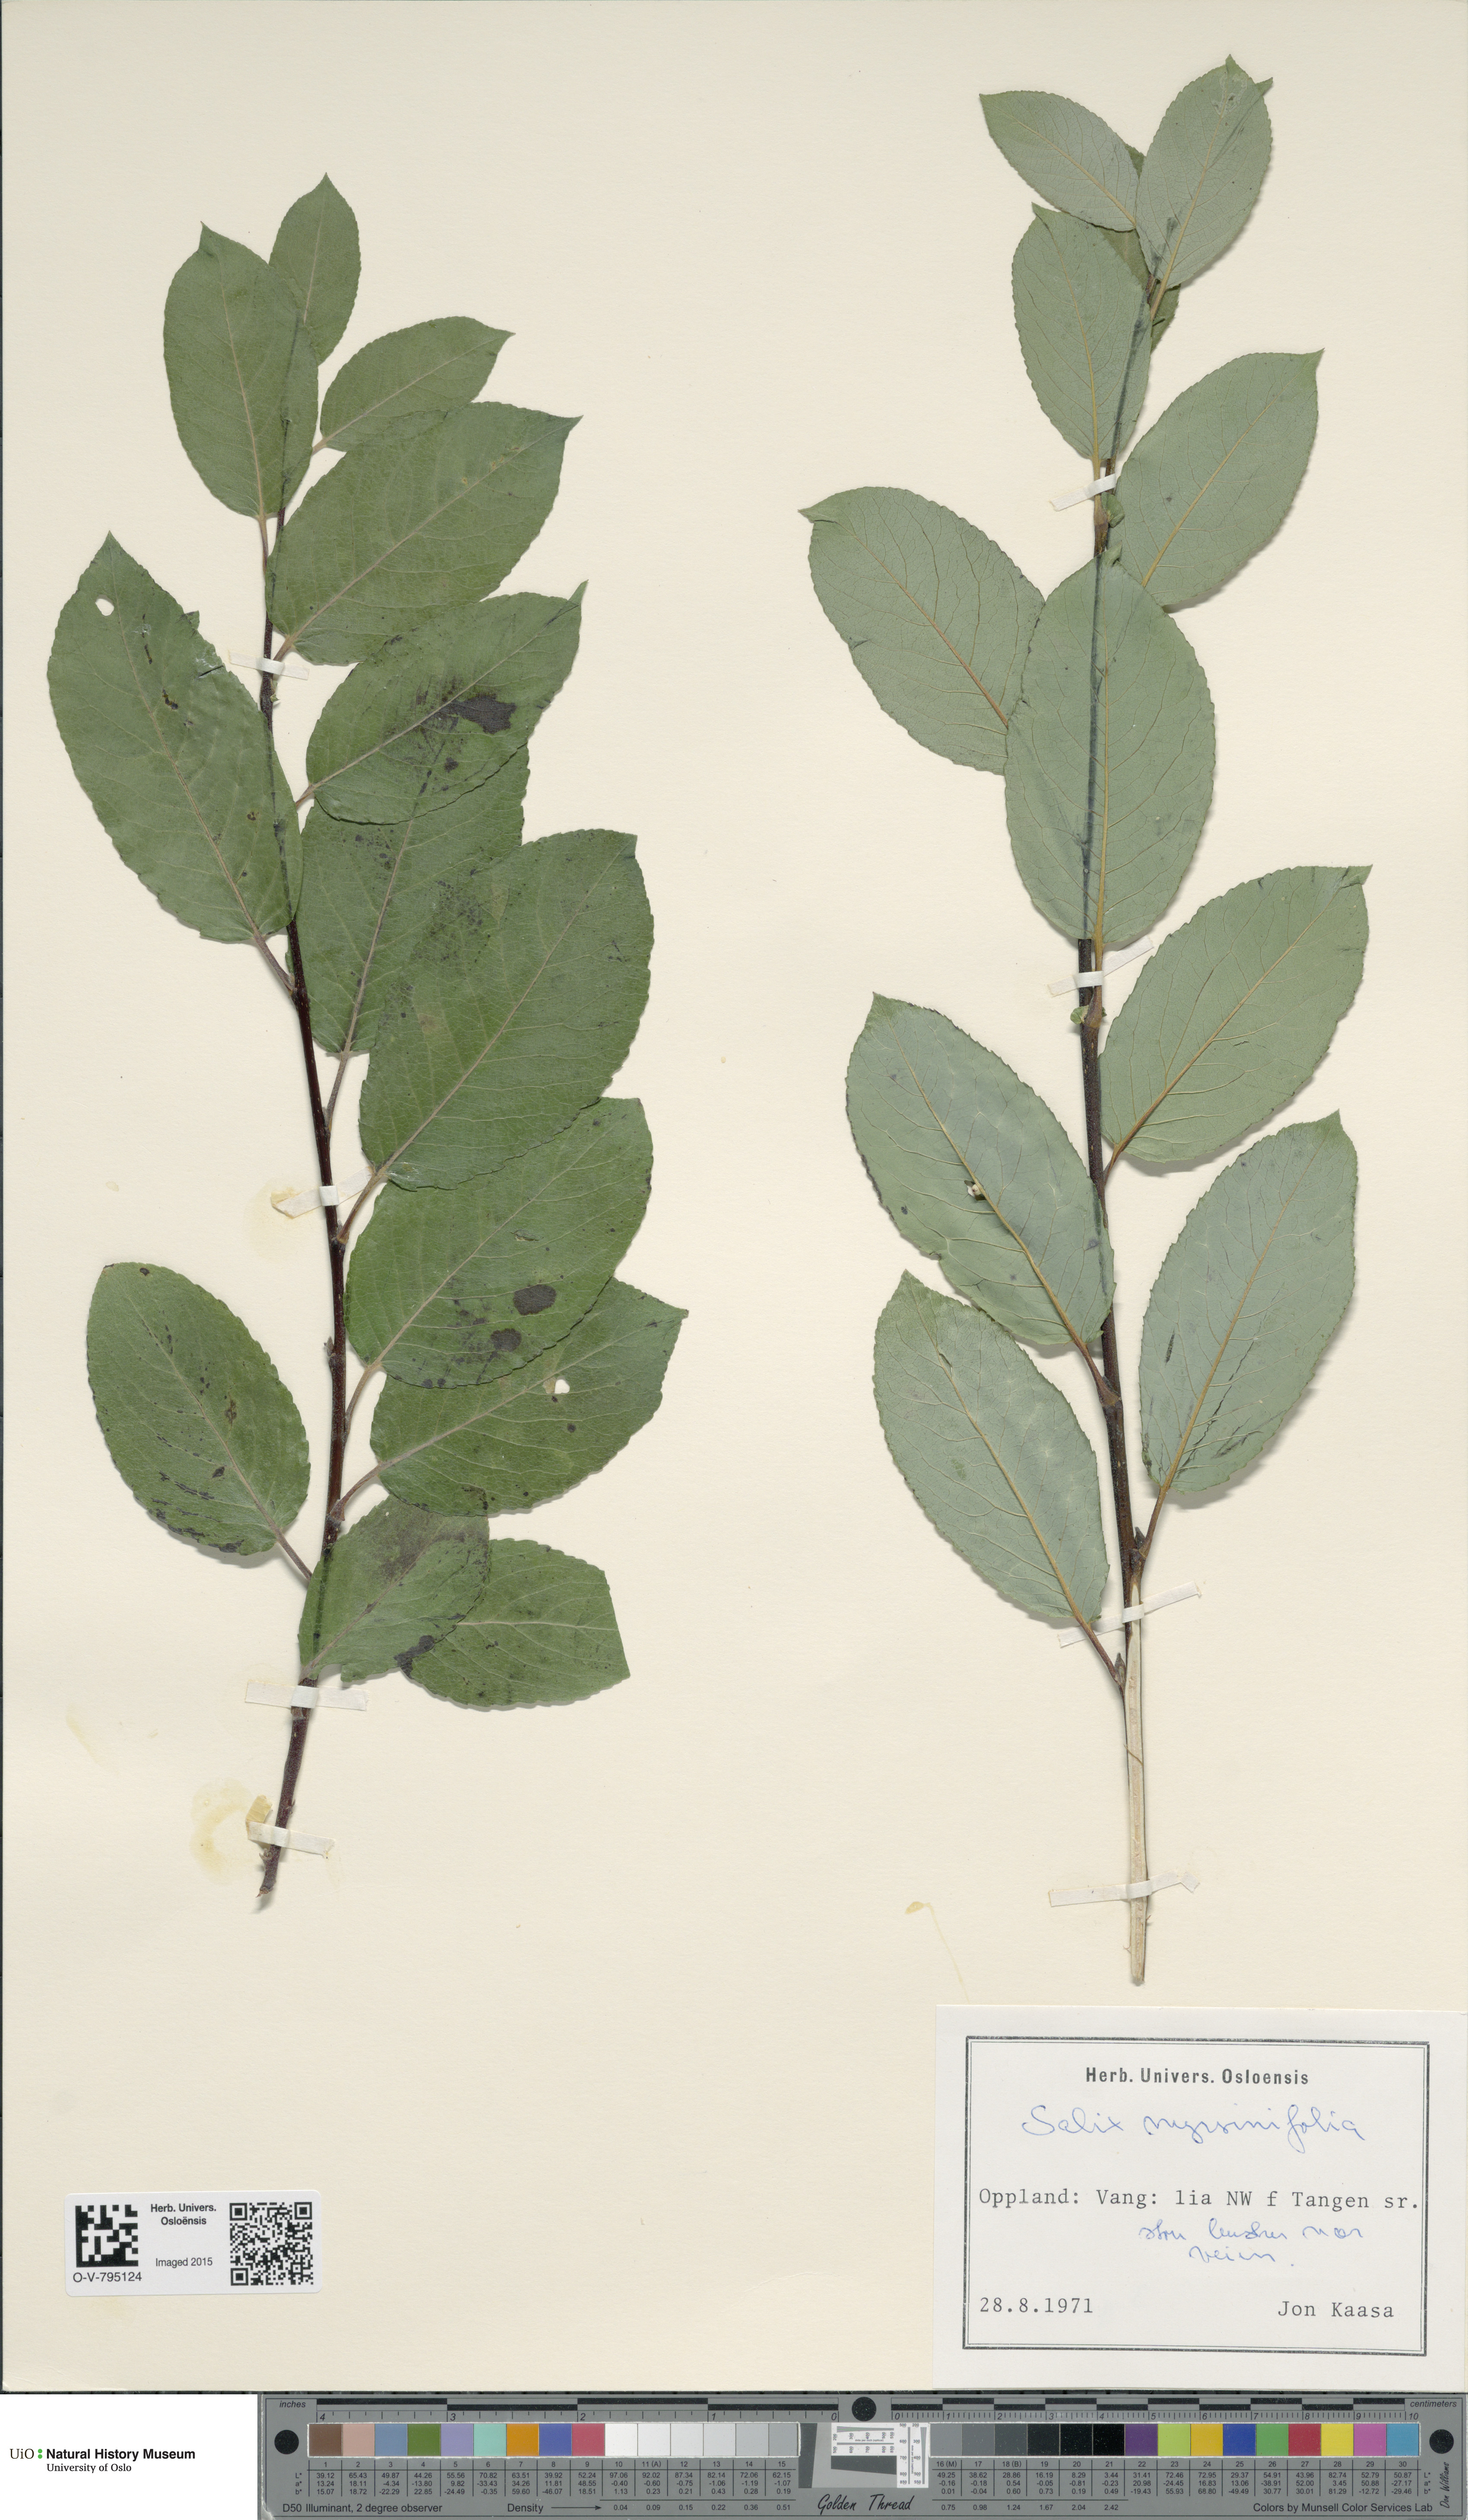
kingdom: Plantae
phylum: Tracheophyta
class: Magnoliopsida
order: Malpighiales
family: Salicaceae
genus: Salix
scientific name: Salix myrsinifolia
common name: Dark-leaved willow
